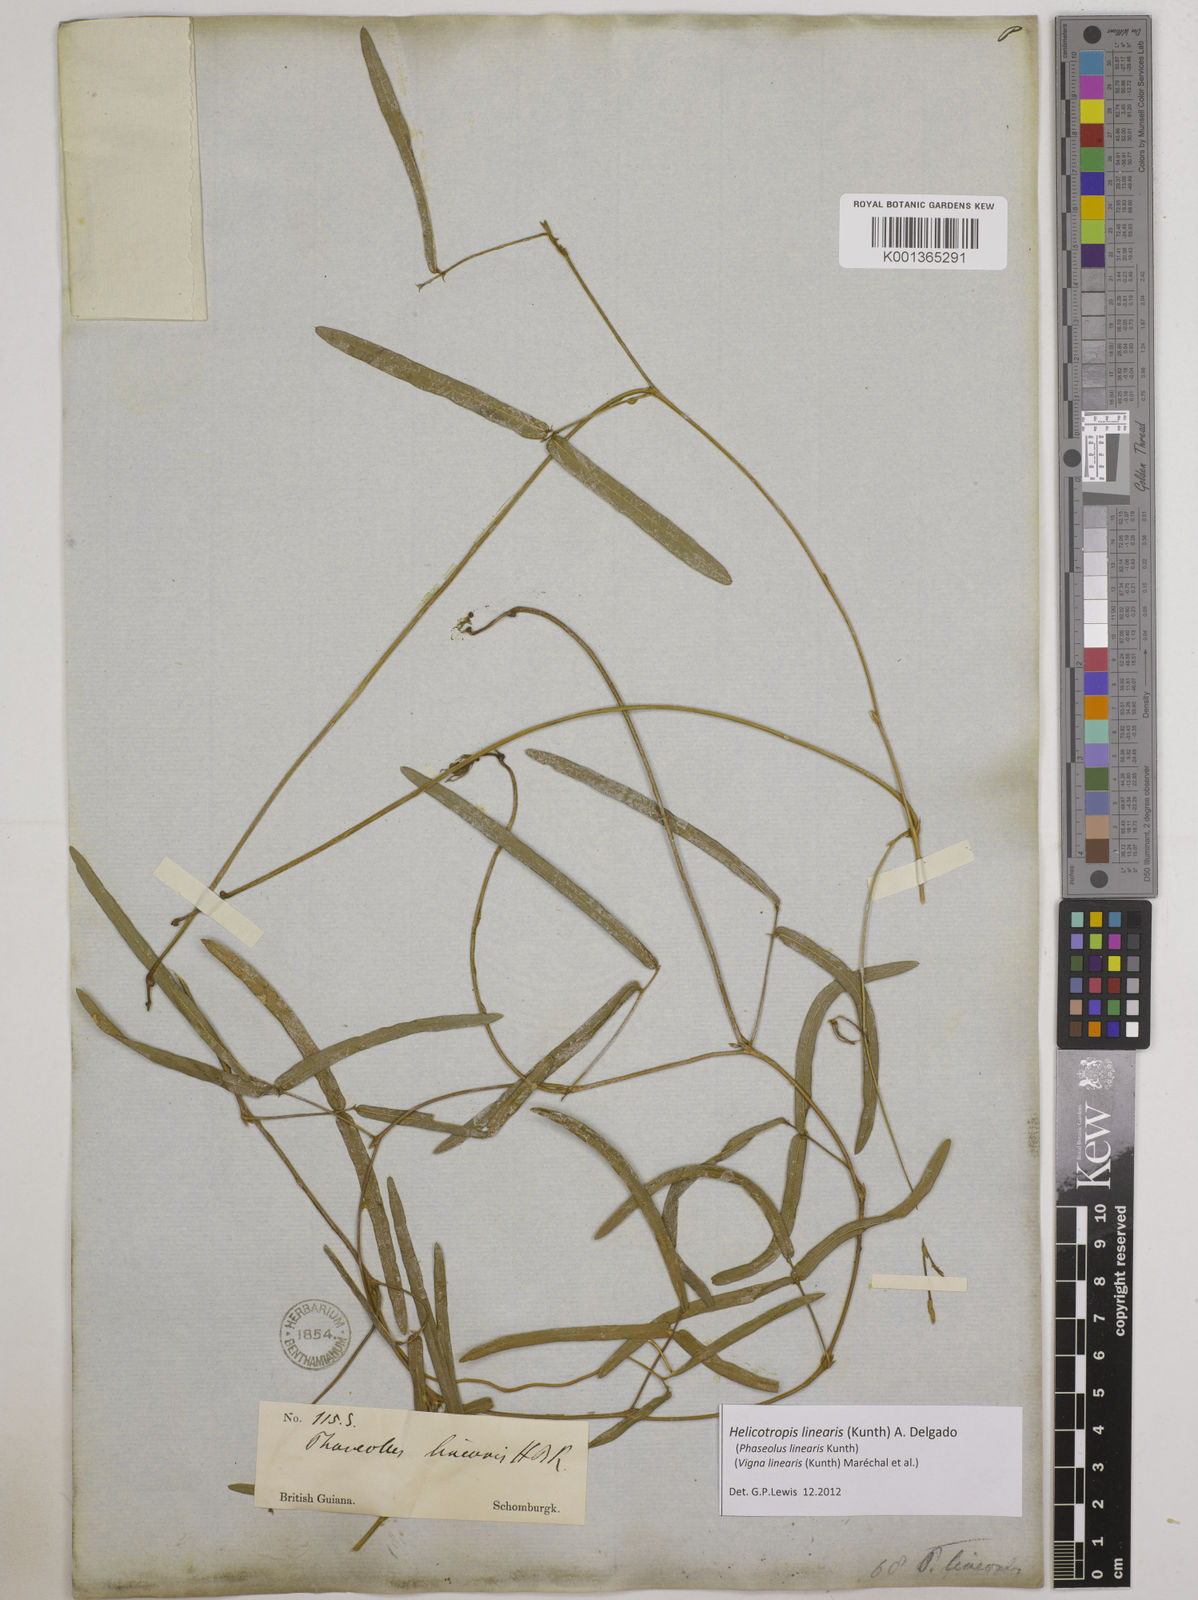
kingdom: Plantae
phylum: Tracheophyta
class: Magnoliopsida
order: Fabales
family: Fabaceae
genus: Helicotropis
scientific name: Helicotropis linearis
